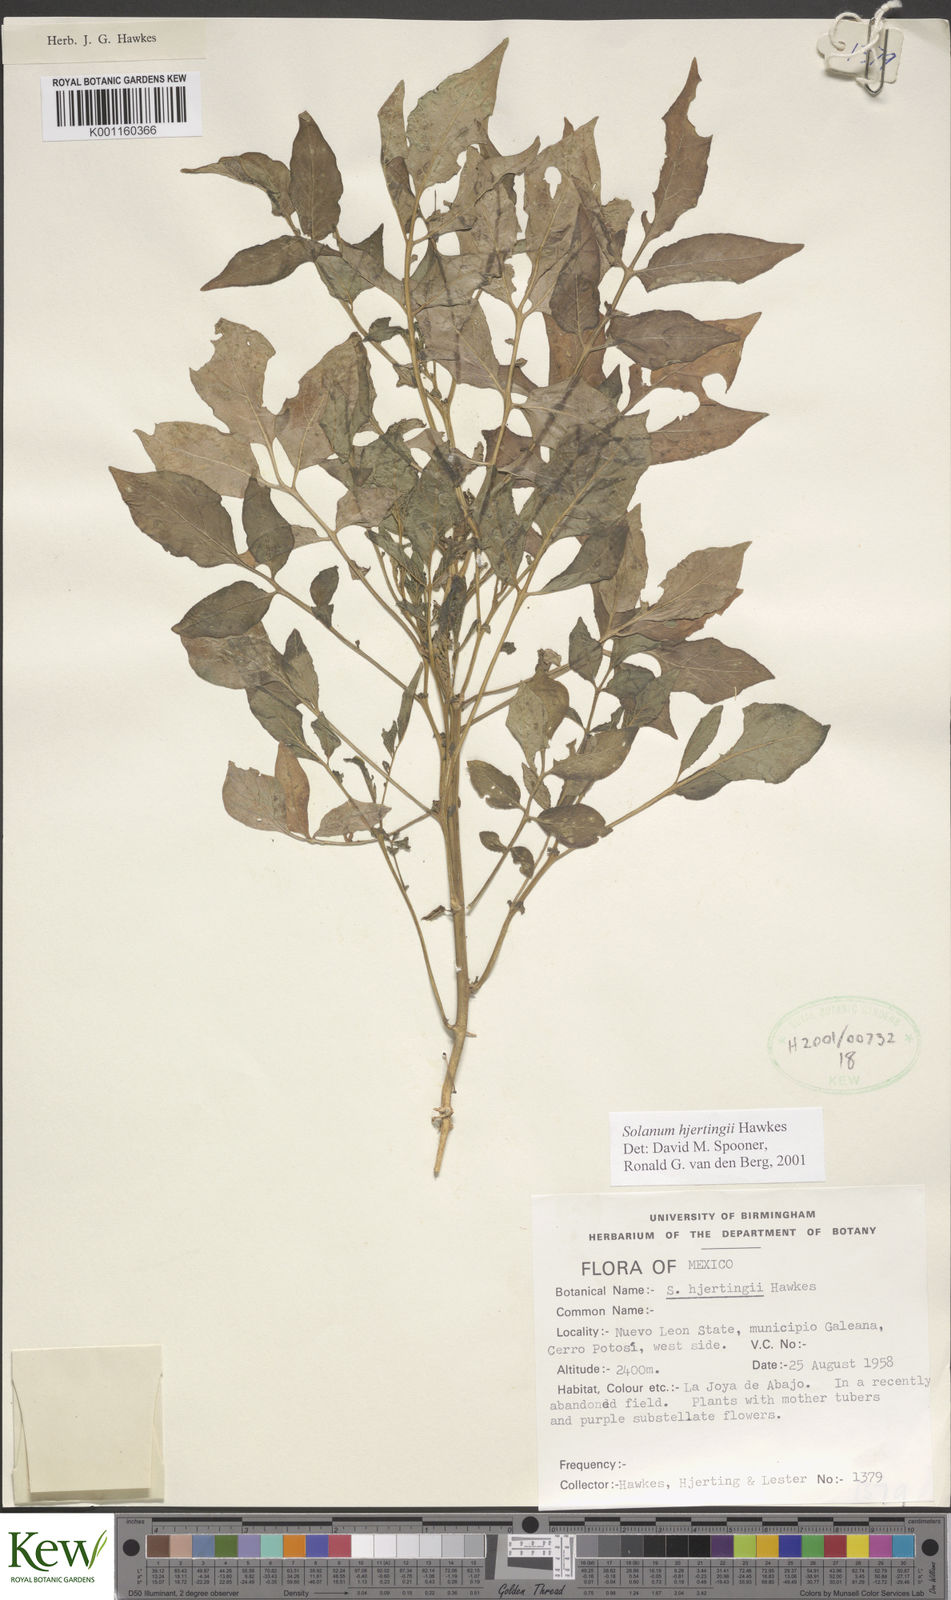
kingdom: Plantae
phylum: Tracheophyta
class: Magnoliopsida
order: Solanales
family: Solanaceae
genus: Solanum
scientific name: Solanum hjertingii
